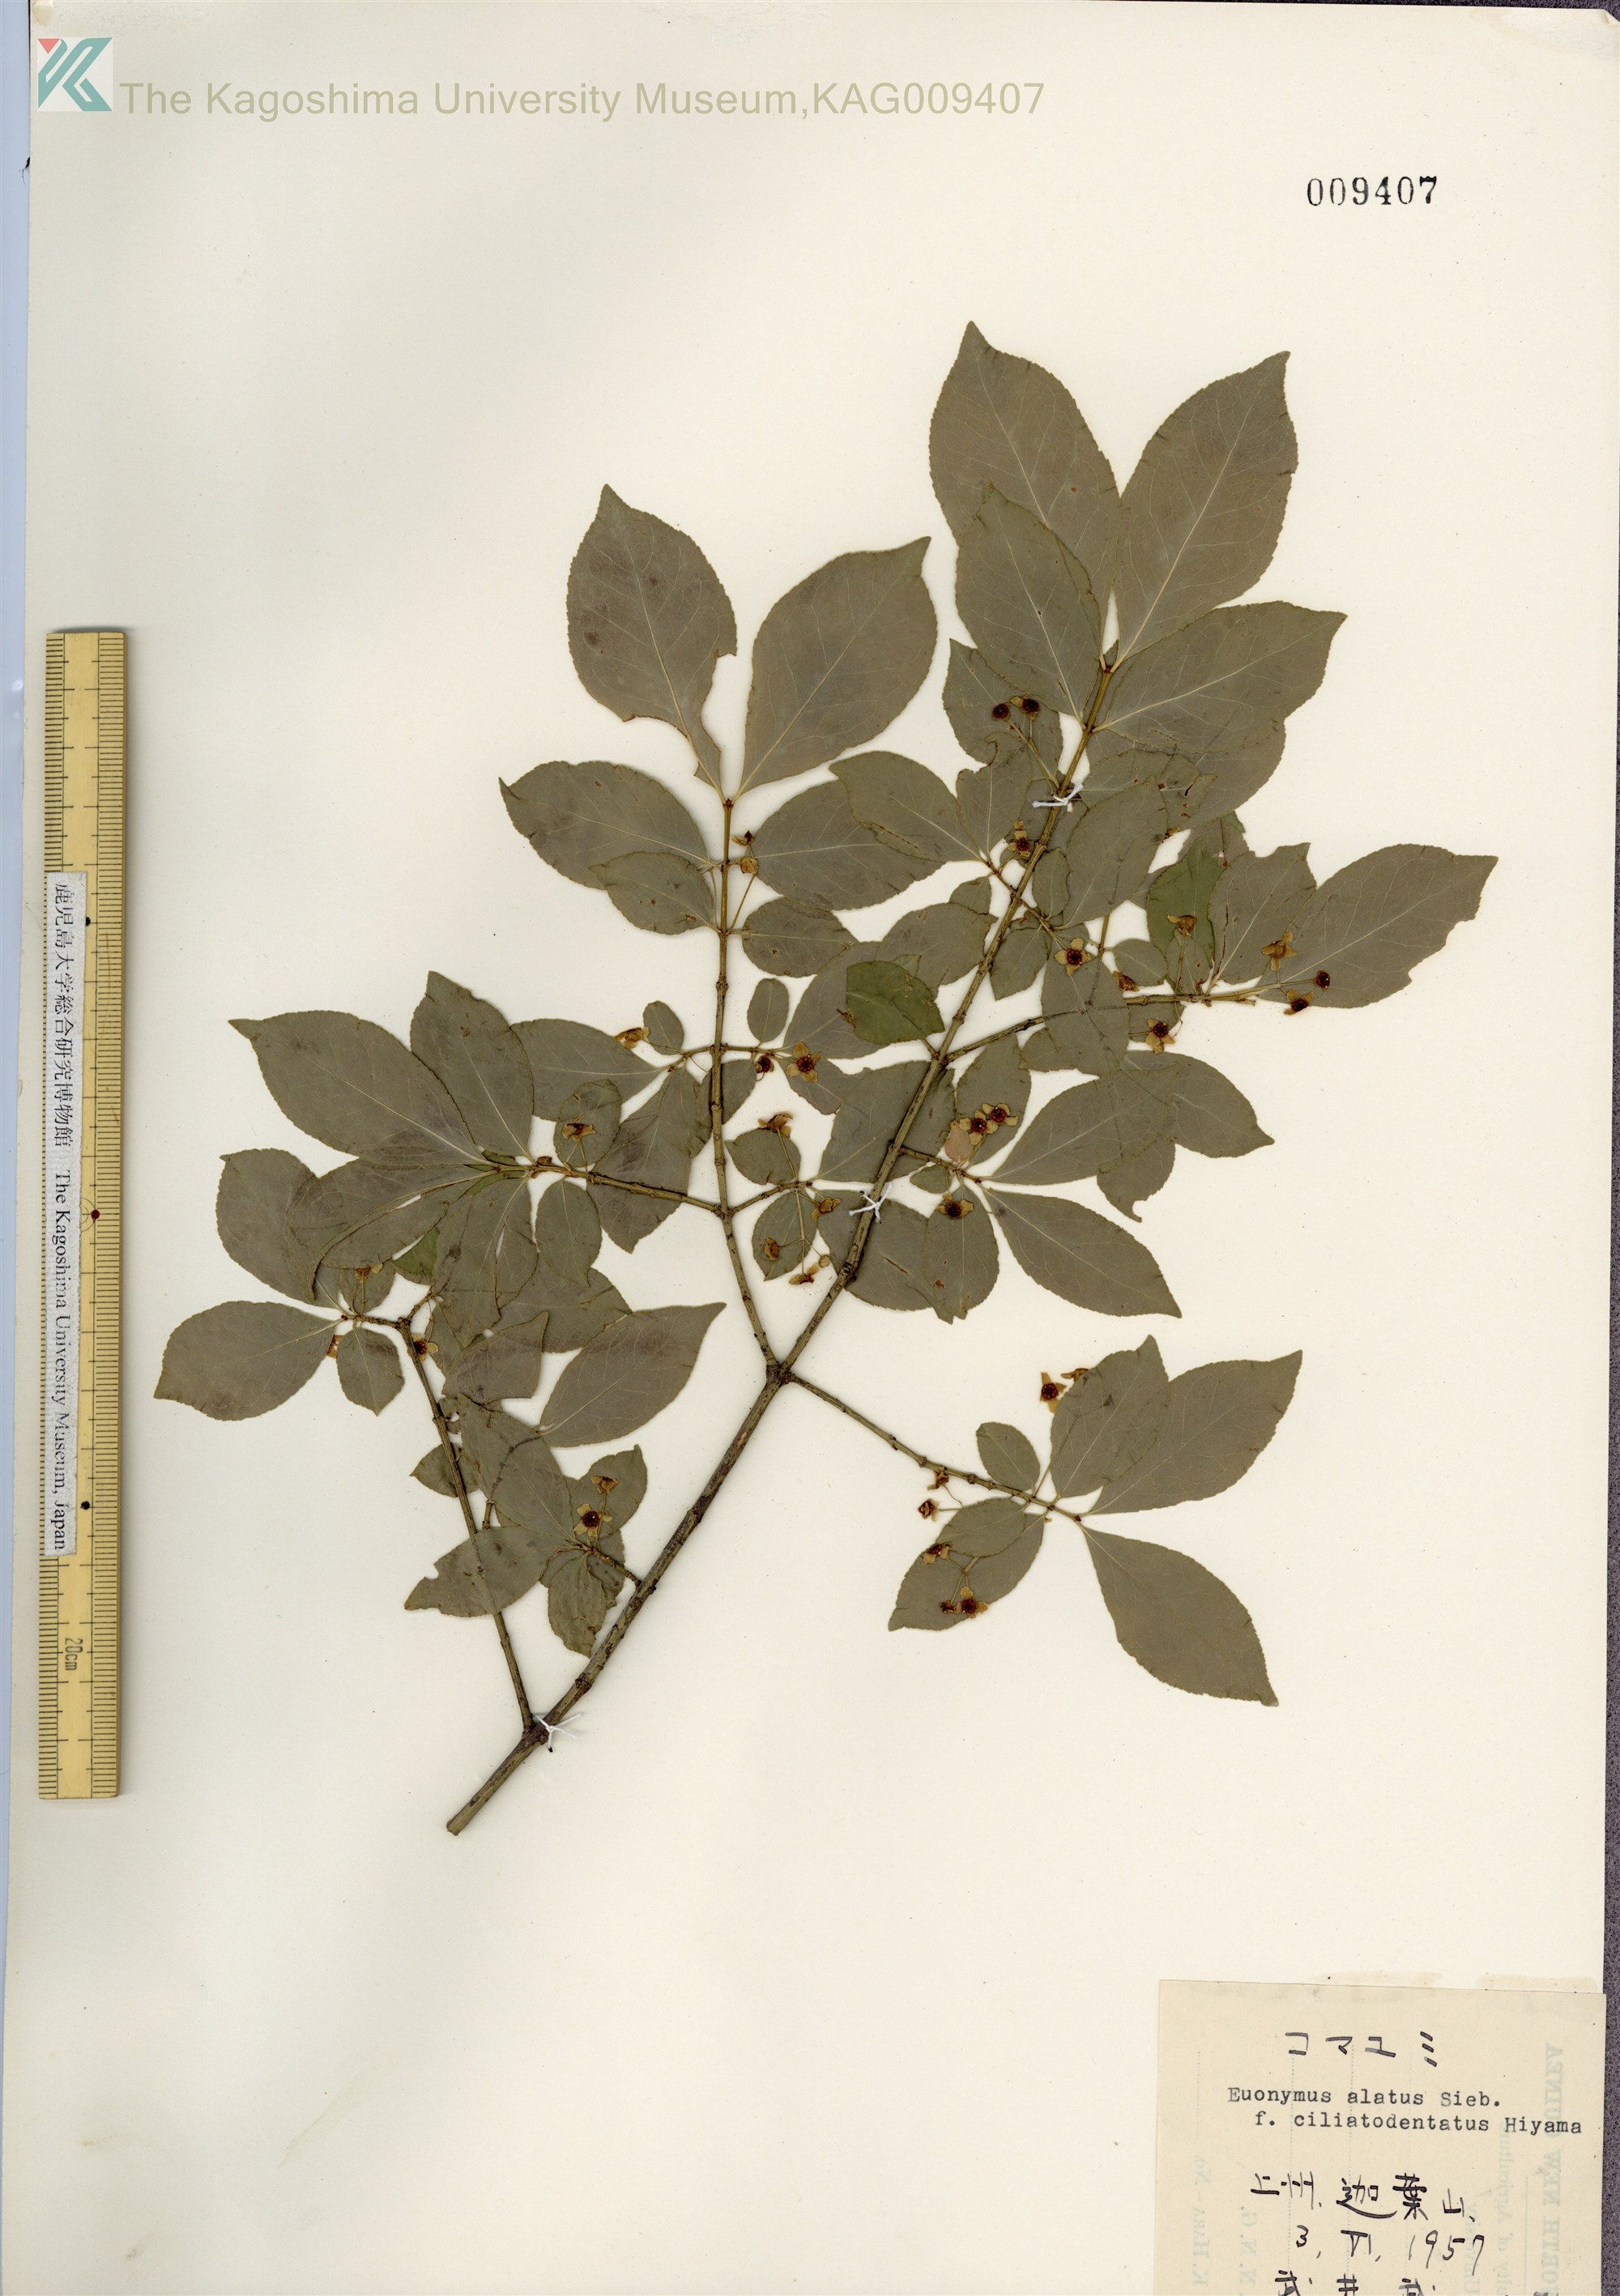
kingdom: Plantae
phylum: Tracheophyta
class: Magnoliopsida
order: Celastrales
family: Celastraceae
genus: Euonymus
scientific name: Euonymus alatus
